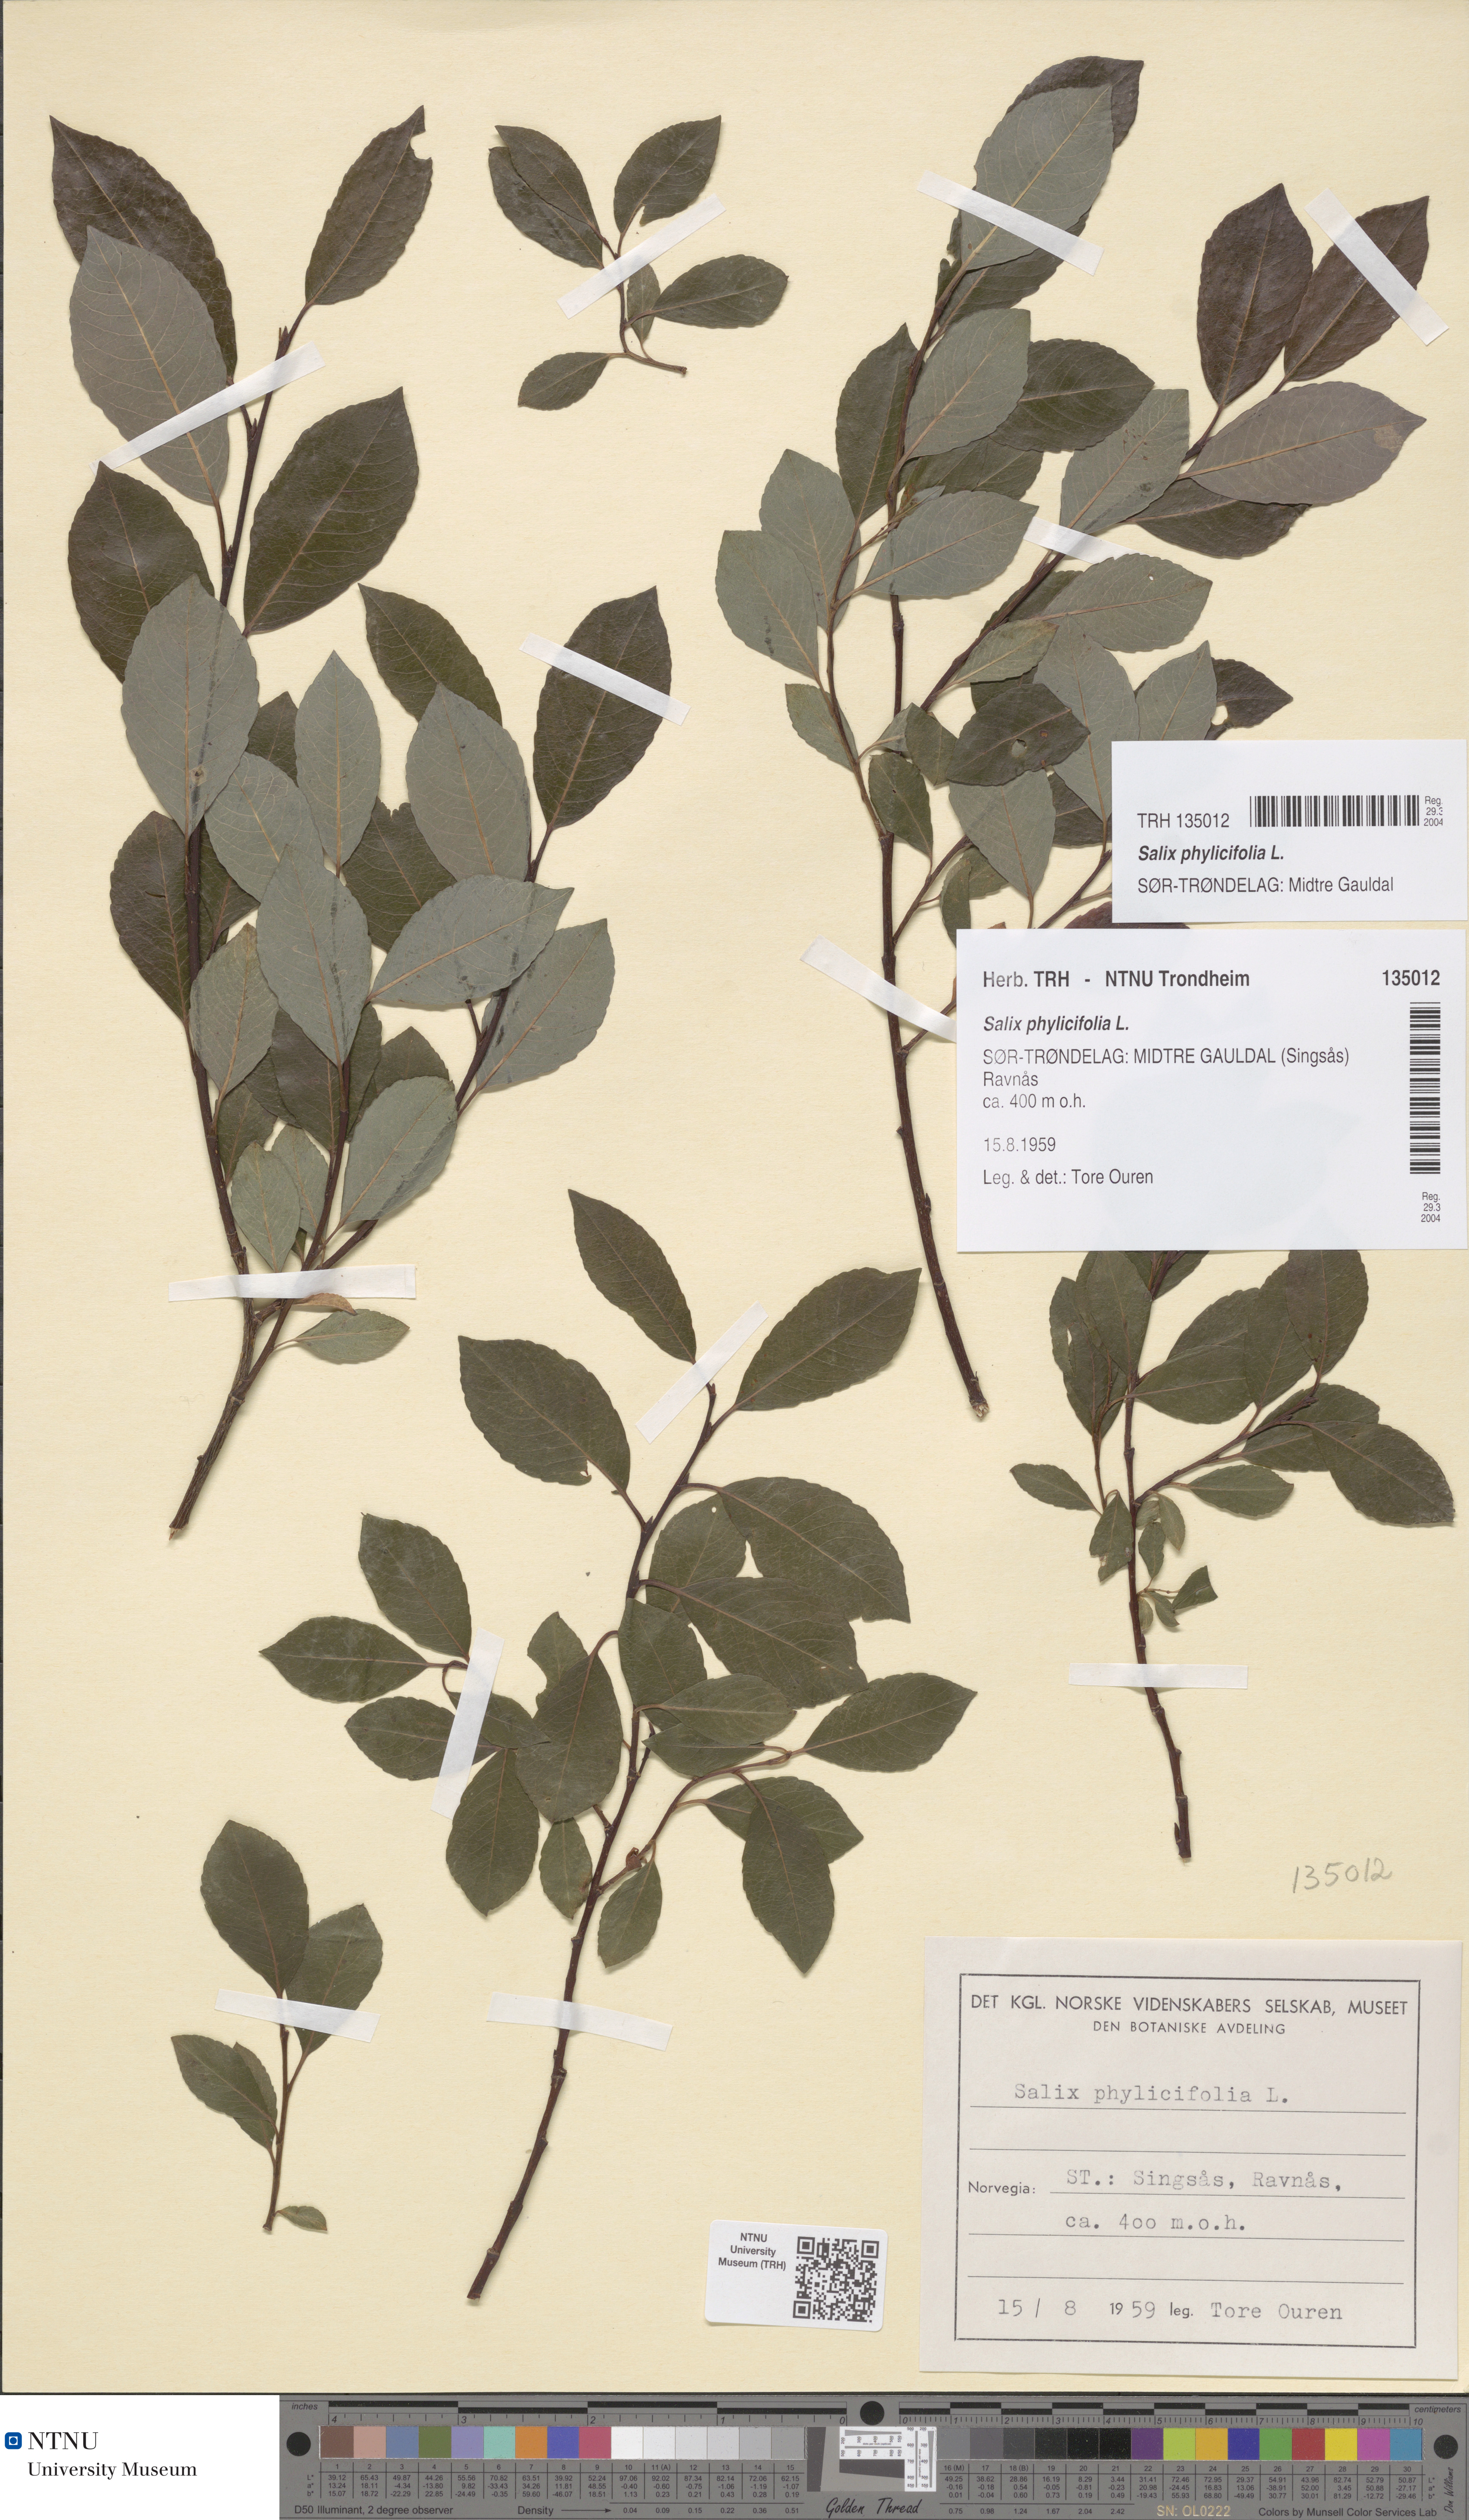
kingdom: Plantae
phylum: Tracheophyta
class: Magnoliopsida
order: Malpighiales
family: Salicaceae
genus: Salix
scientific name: Salix phylicifolia
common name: Tea-leaved willow
